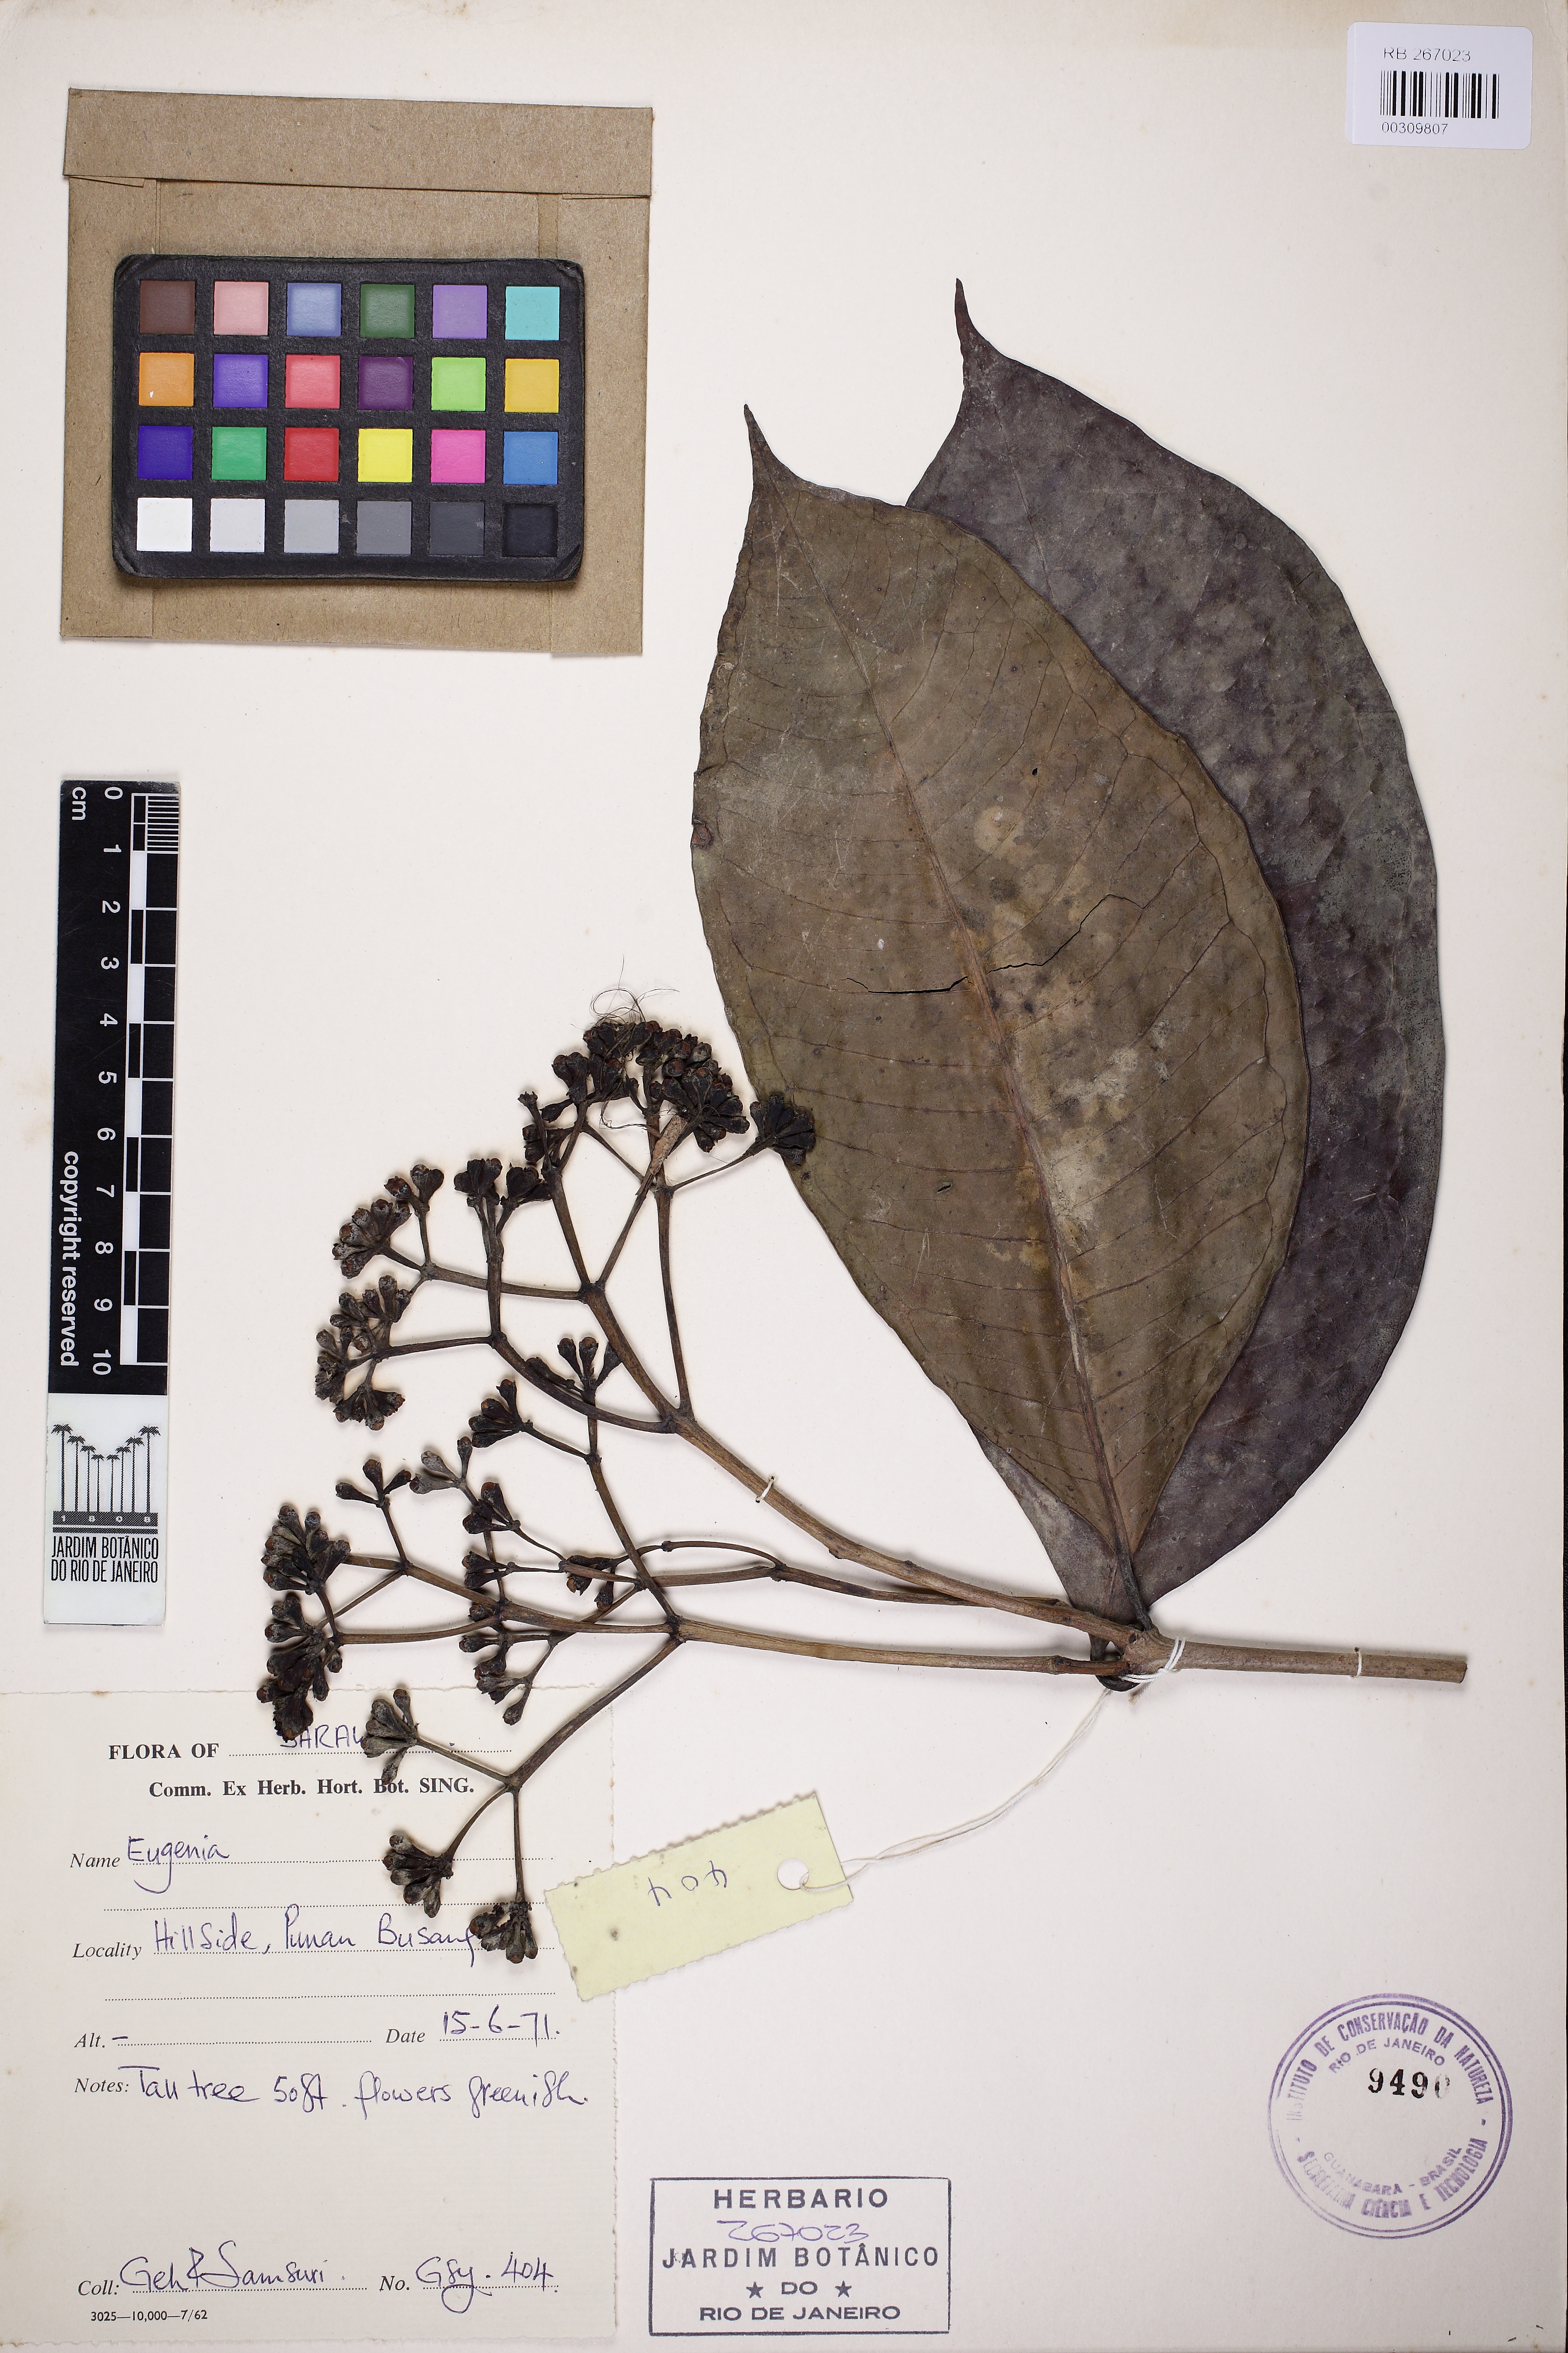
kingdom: Plantae
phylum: Tracheophyta
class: Magnoliopsida
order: Myrtales
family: Myrtaceae
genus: Syzygium
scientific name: Syzygium
